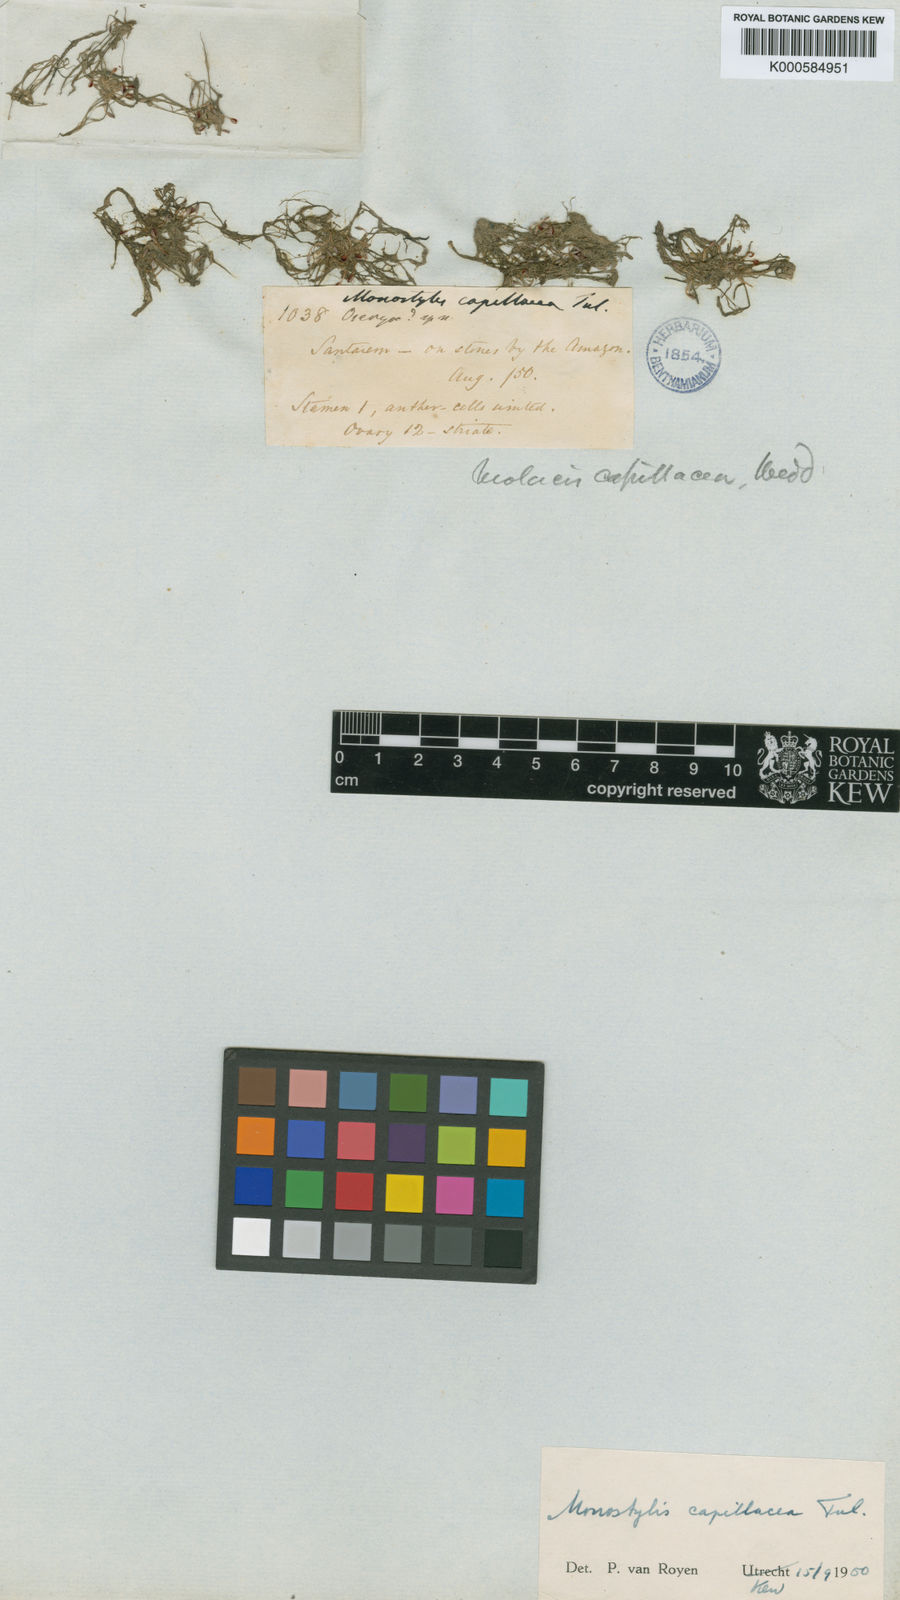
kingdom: Plantae
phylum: Tracheophyta
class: Magnoliopsida
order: Malpighiales
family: Podostemaceae
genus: Lophogyne
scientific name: Lophogyne royenella
